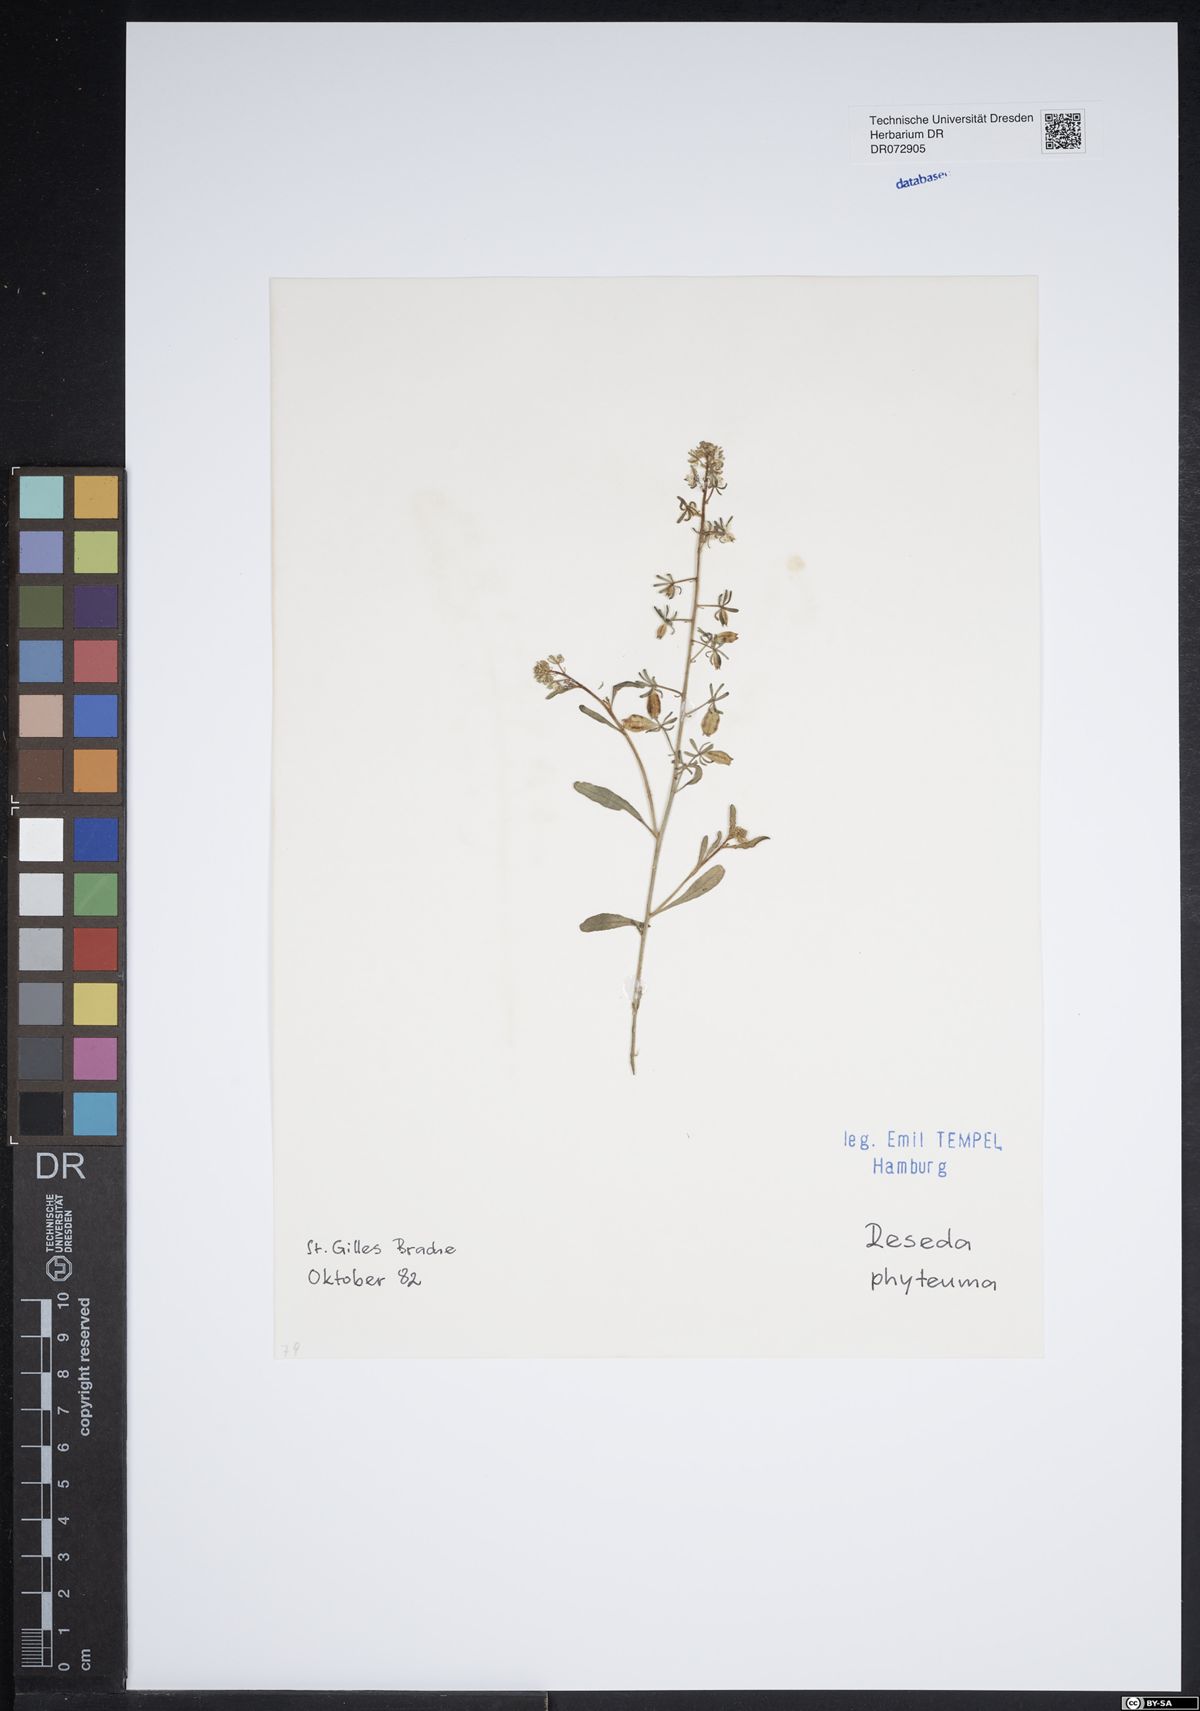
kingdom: Plantae
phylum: Tracheophyta
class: Magnoliopsida
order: Brassicales
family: Resedaceae
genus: Reseda
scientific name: Reseda phyteuma
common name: Corn mignonette
